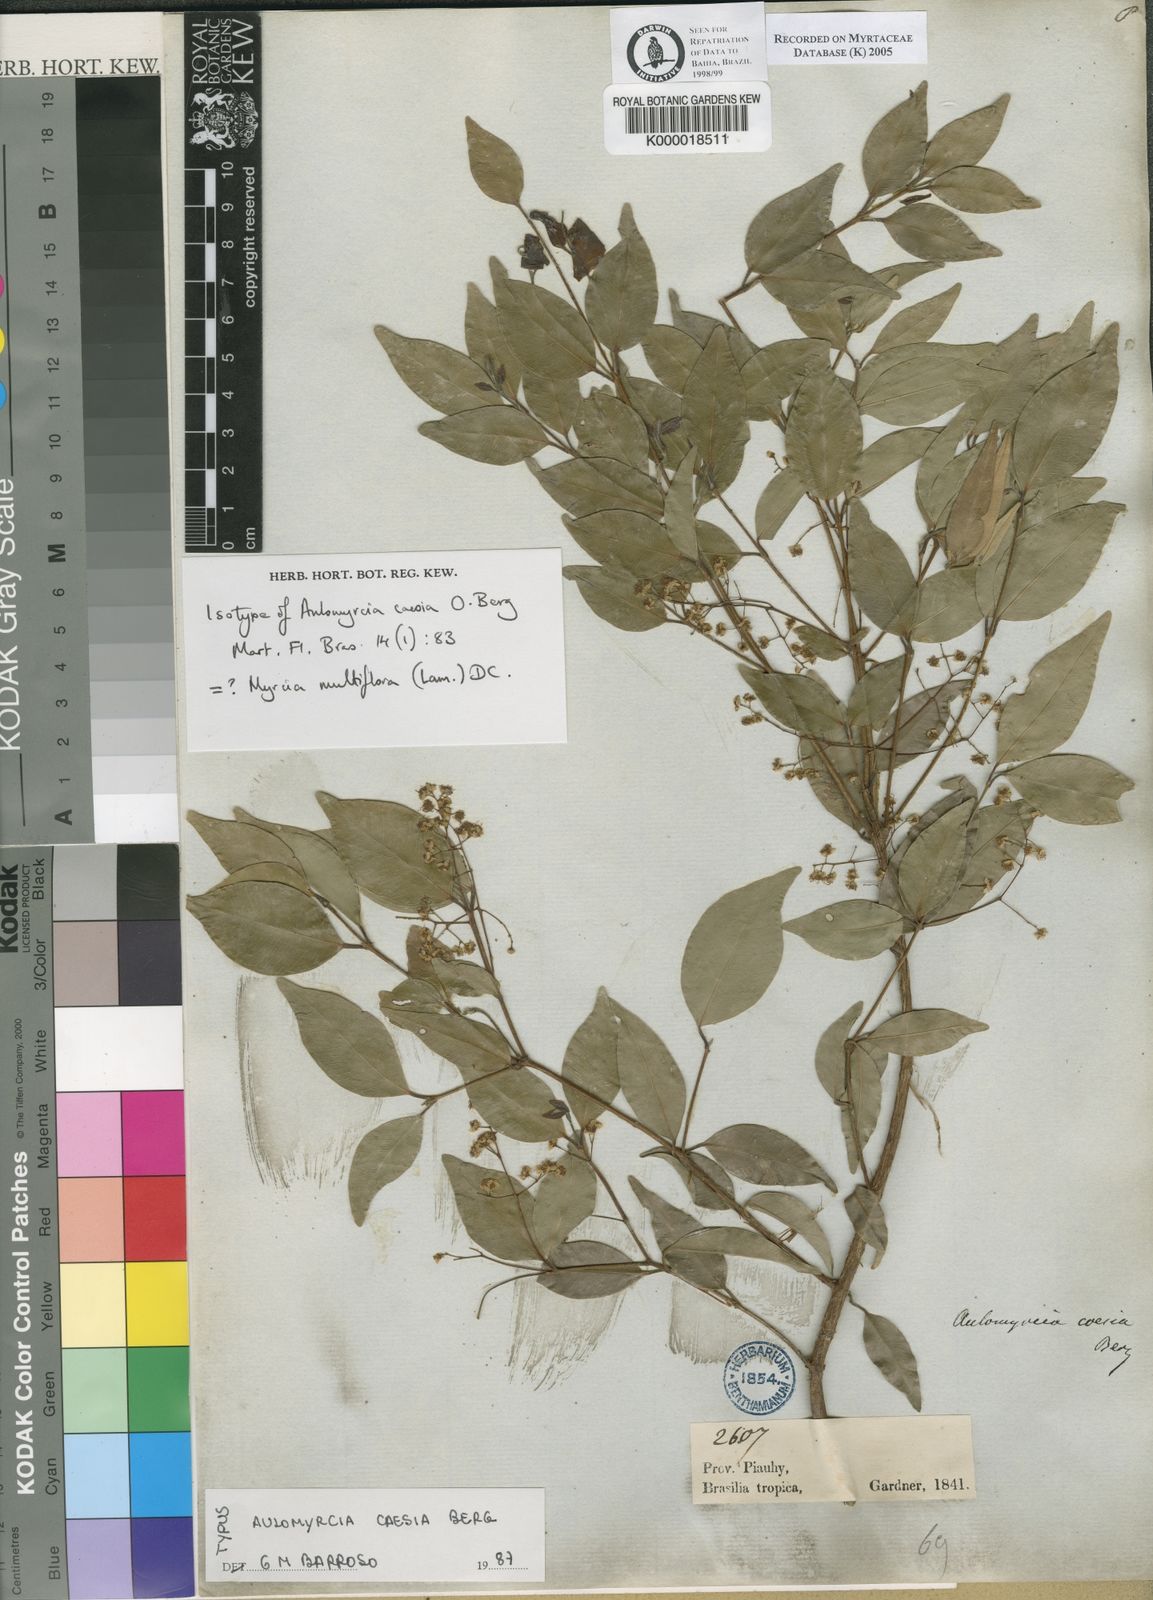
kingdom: Plantae
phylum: Tracheophyta
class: Magnoliopsida
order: Myrtales
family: Myrtaceae
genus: Myrcia
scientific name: Myrcia multiflora
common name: Pedra hume
